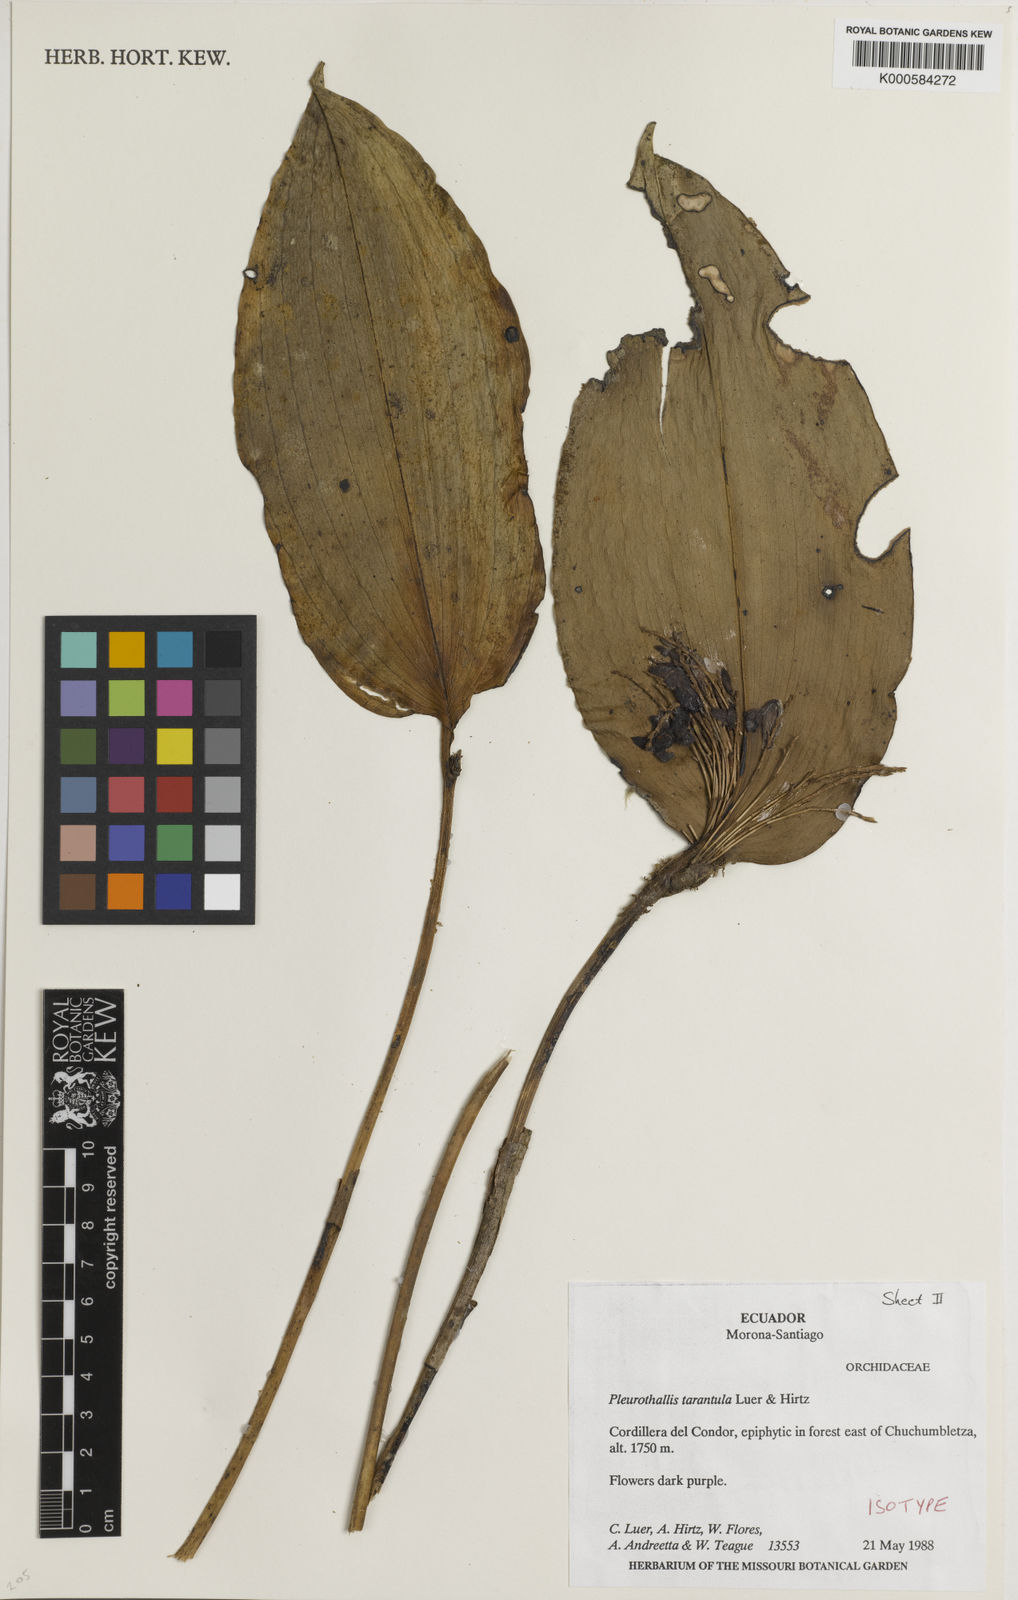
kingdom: Plantae
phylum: Tracheophyta
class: Liliopsida
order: Asparagales
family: Orchidaceae
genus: Stelis
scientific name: Stelis tarantula
